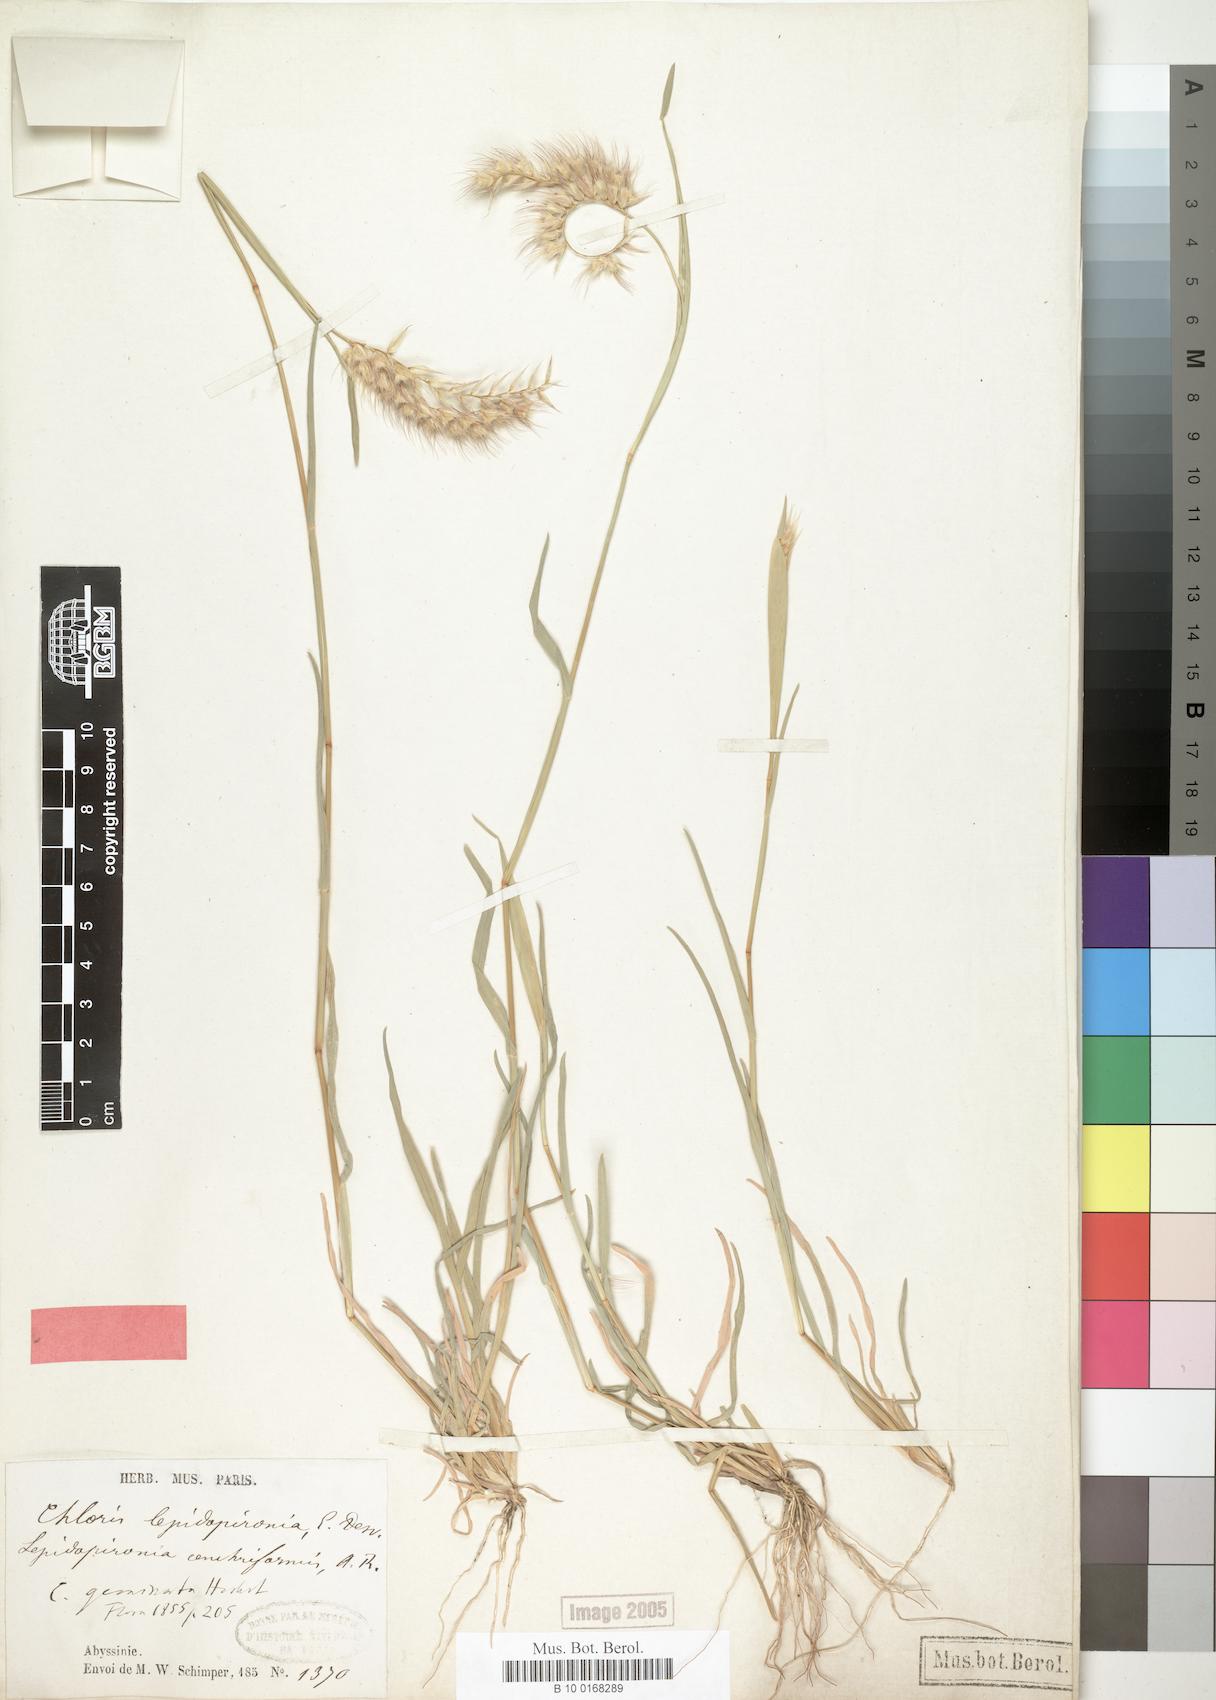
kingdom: Plantae
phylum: Tracheophyta
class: Liliopsida
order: Poales
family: Poaceae
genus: Tetrapogon
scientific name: Tetrapogon cenchriformis
